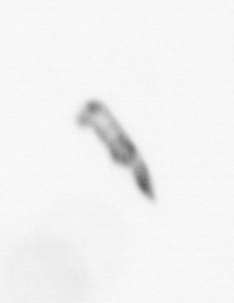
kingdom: Chromista
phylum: Ochrophyta
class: Bacillariophyceae
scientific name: Bacillariophyceae
